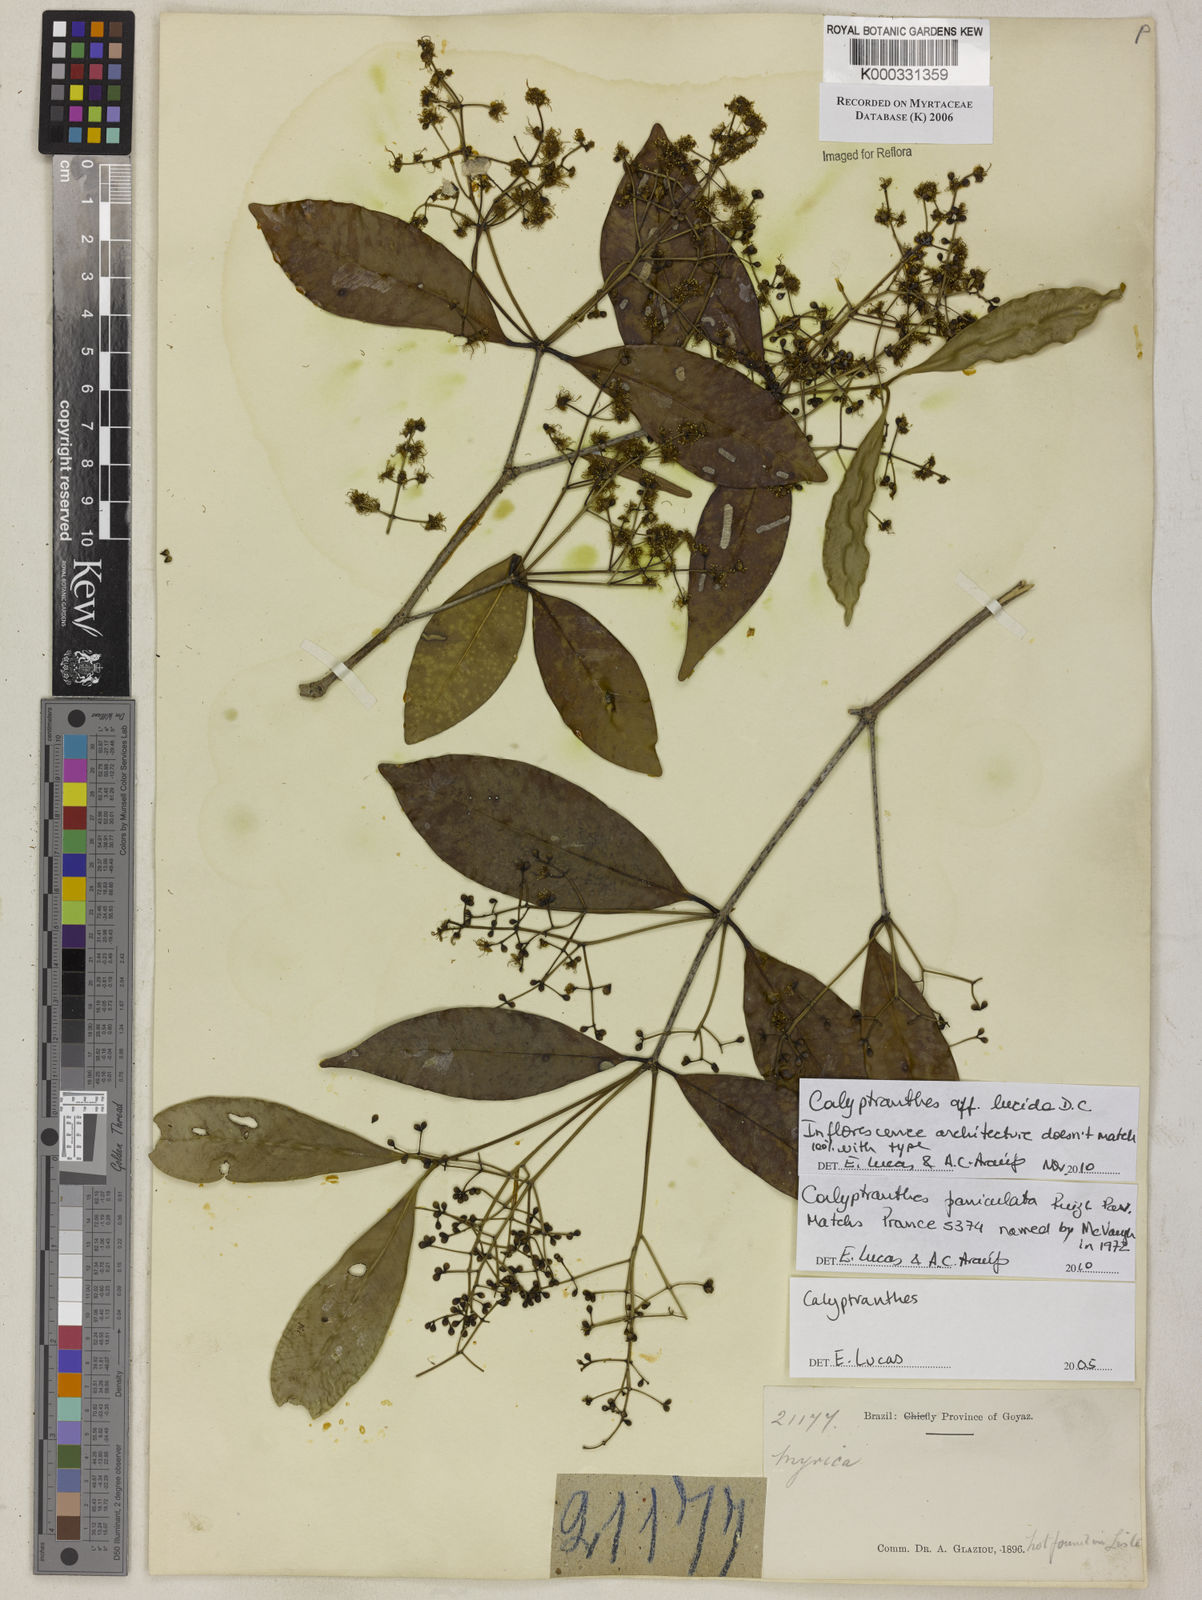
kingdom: Plantae
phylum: Tracheophyta
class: Magnoliopsida
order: Myrtales
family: Myrtaceae
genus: Calyptranthes
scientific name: Calyptranthes
